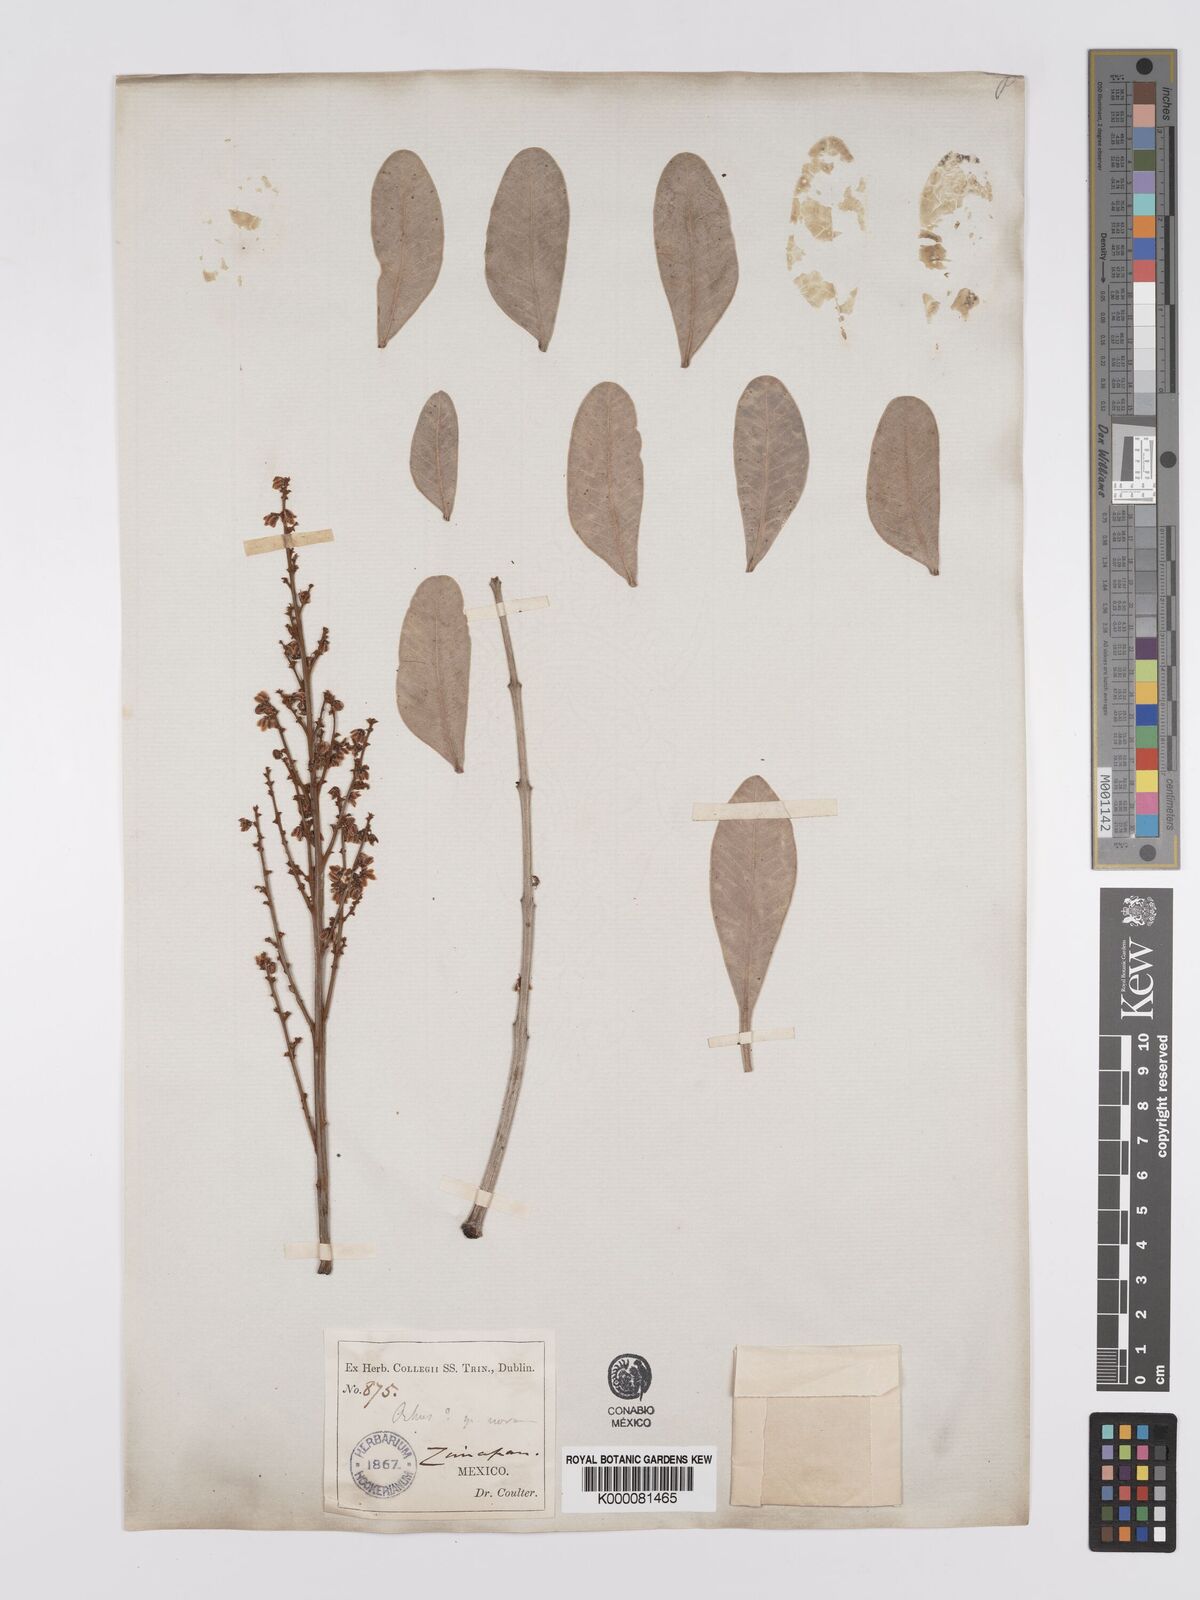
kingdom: Plantae
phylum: Tracheophyta
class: Magnoliopsida
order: Sapindales
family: Anacardiaceae
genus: Rhus
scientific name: Rhus
